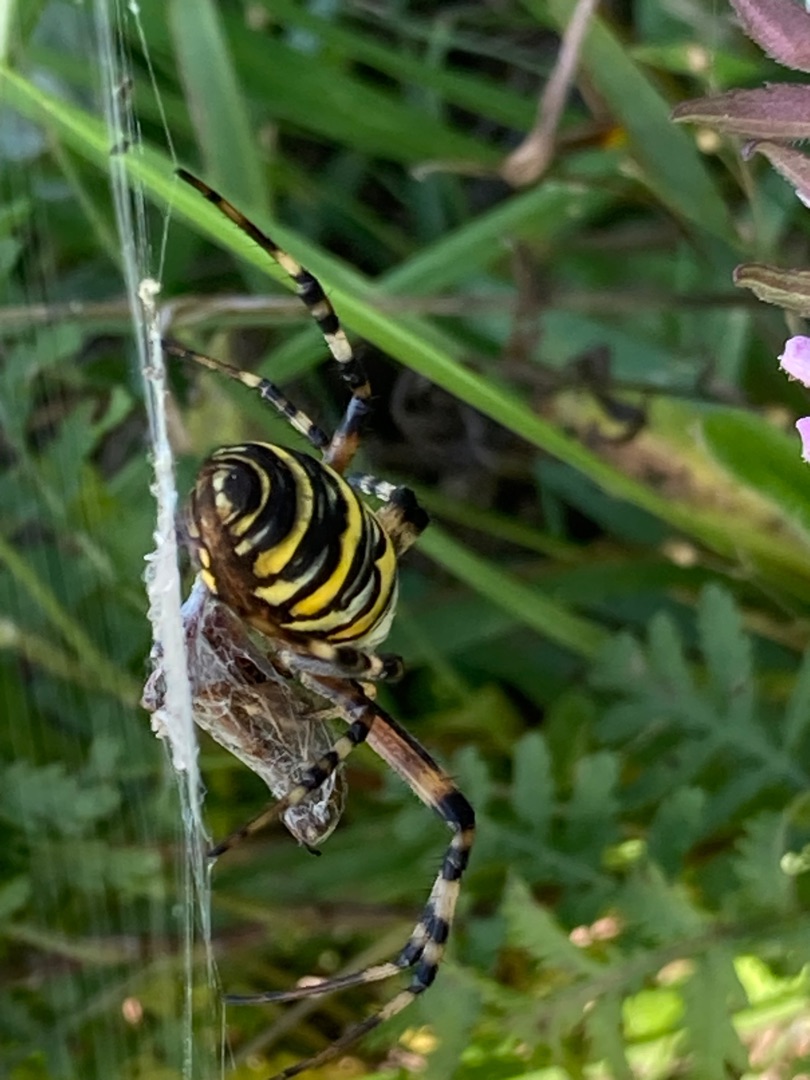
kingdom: Animalia
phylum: Arthropoda
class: Arachnida
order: Araneae
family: Araneidae
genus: Argiope
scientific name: Argiope bruennichi
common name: Hvepseedderkop
